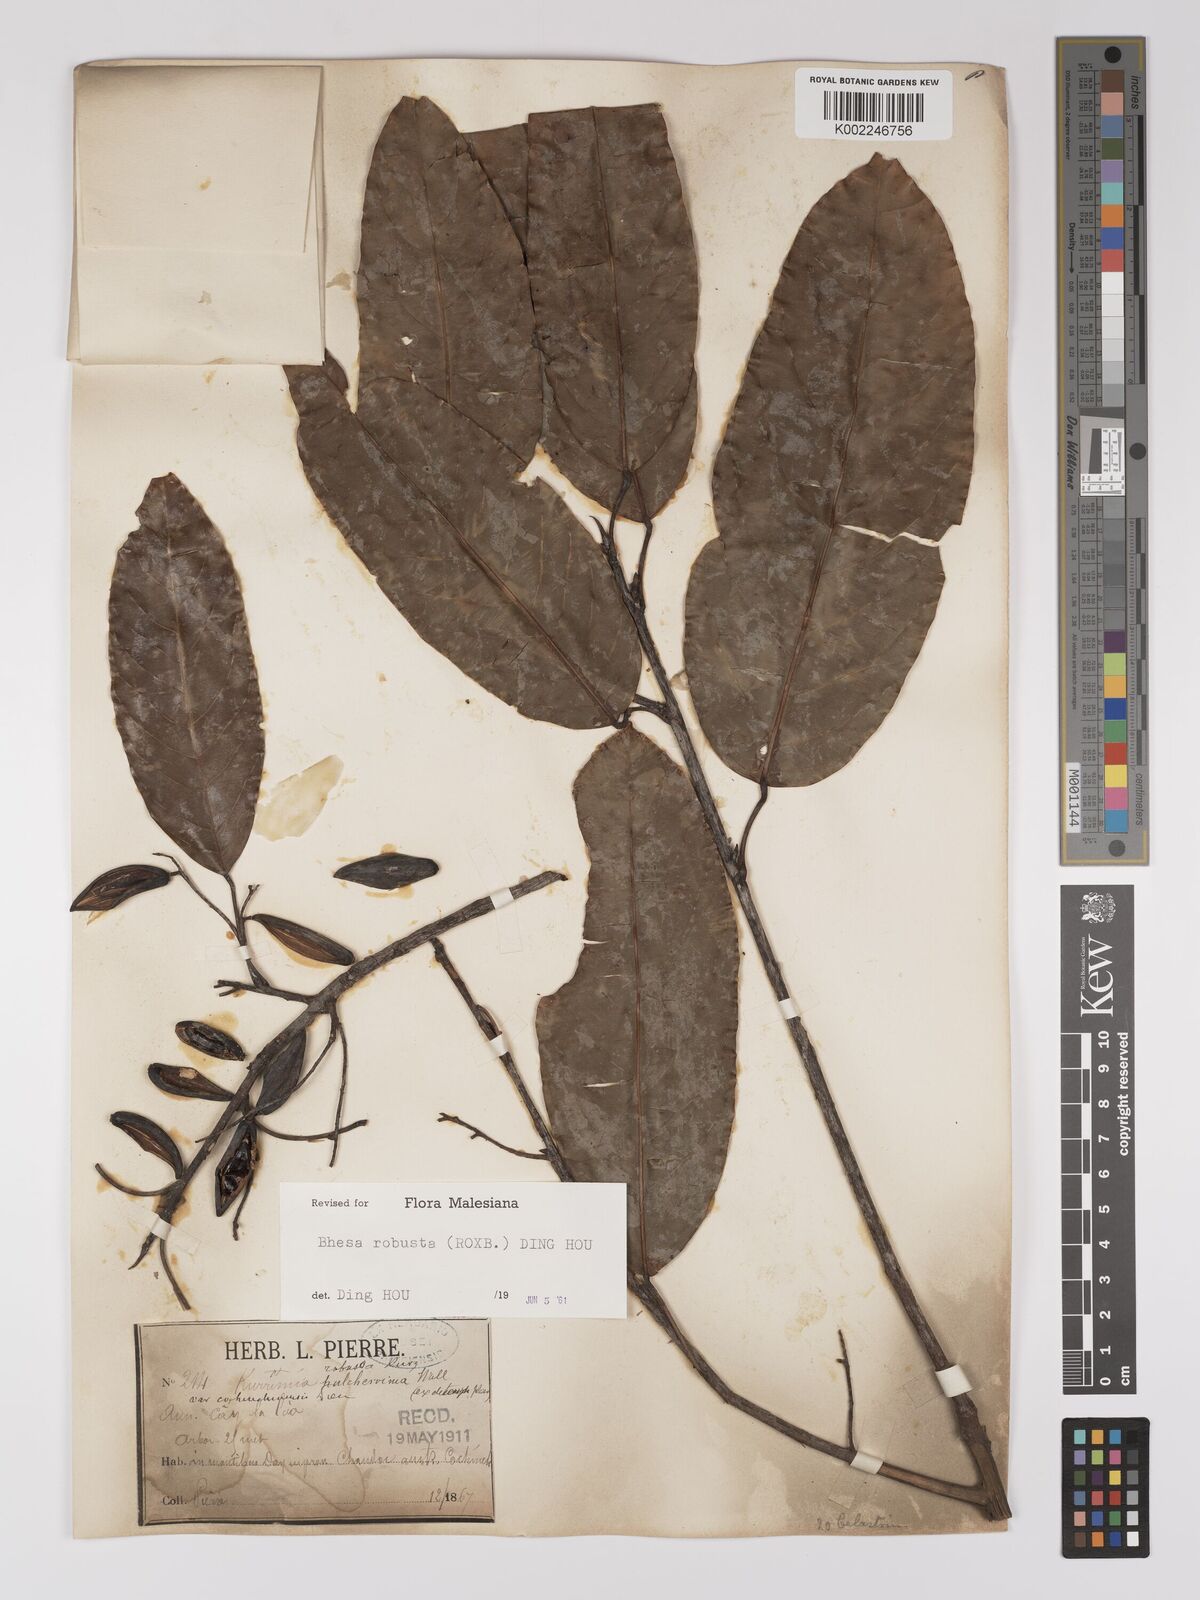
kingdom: Plantae
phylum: Tracheophyta
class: Magnoliopsida
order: Malpighiales
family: Centroplacaceae
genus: Bhesa
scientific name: Bhesa robusta
